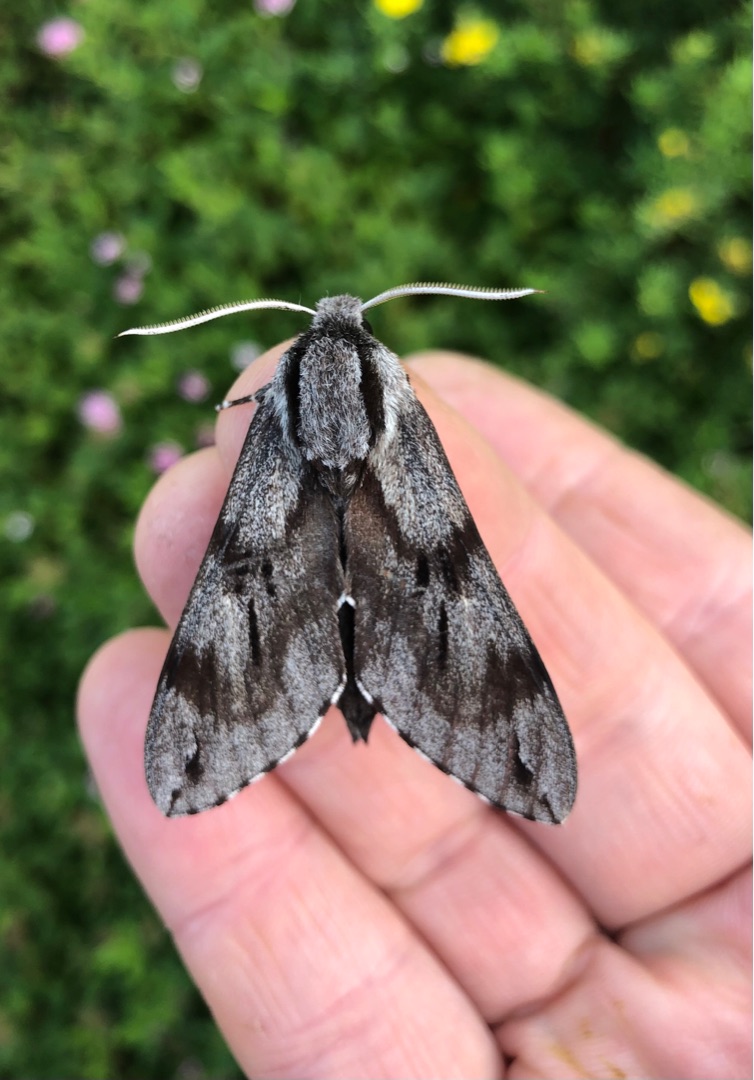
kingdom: Animalia
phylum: Arthropoda
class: Insecta
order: Lepidoptera
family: Sphingidae
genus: Sphinx
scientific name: Sphinx pinastri
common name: Fyrresværmer
